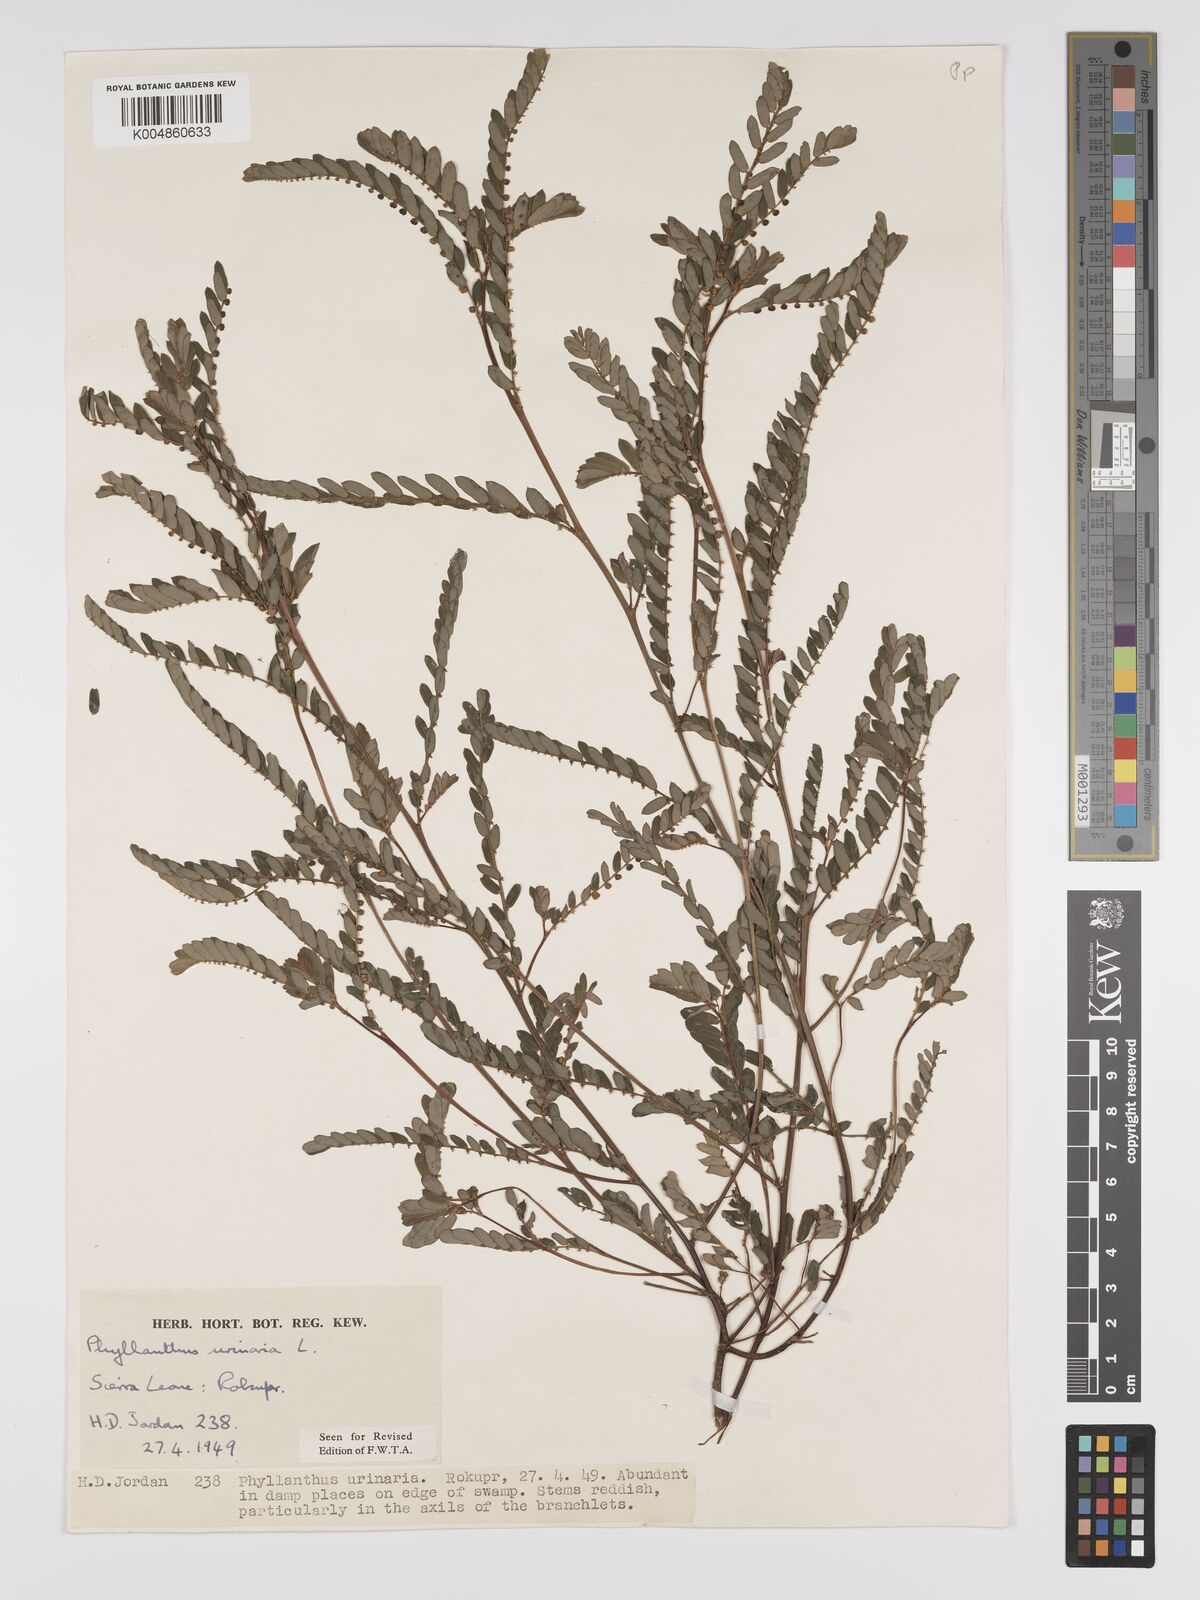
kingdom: Plantae
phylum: Tracheophyta
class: Magnoliopsida
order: Malpighiales
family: Phyllanthaceae
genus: Phyllanthus
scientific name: Phyllanthus urinaria
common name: Chamber bitter
